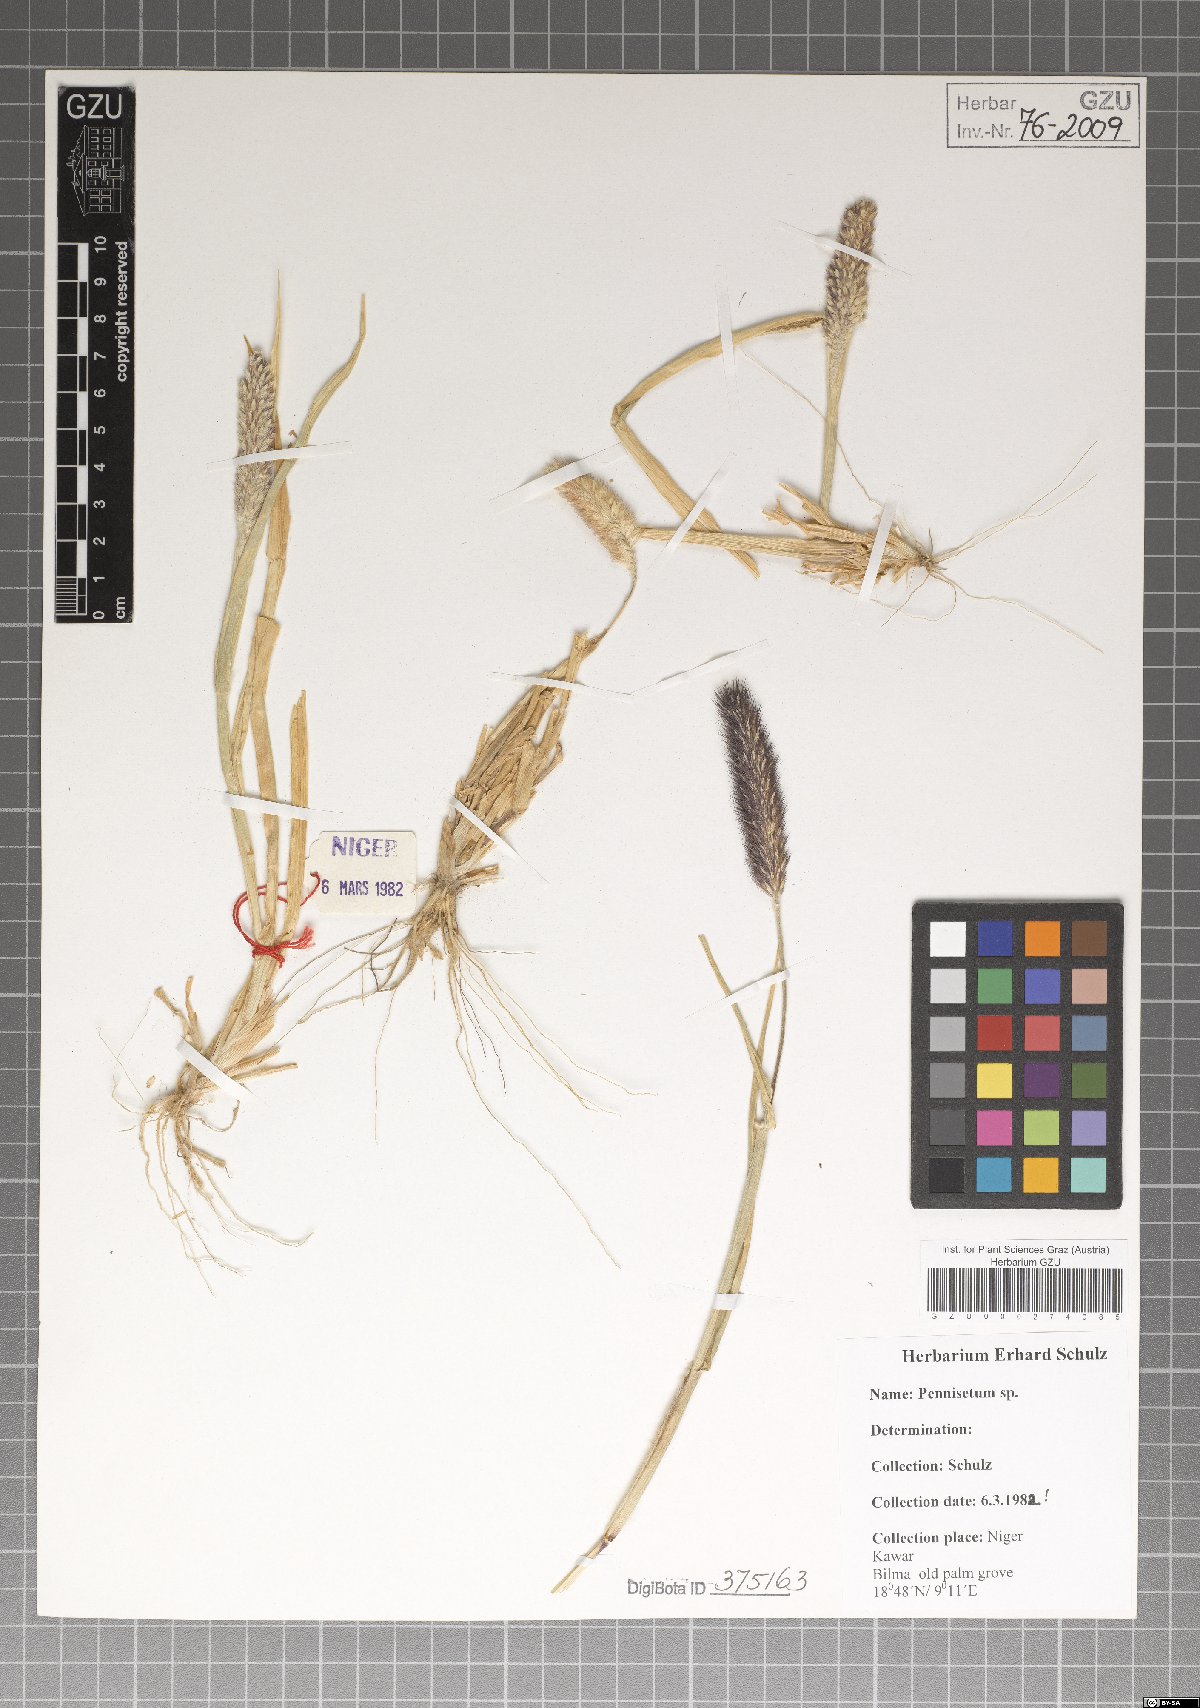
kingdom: Plantae
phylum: Tracheophyta
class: Liliopsida
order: Poales
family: Poaceae
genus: Cenchrus
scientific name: Cenchrus Pennisetum spec
